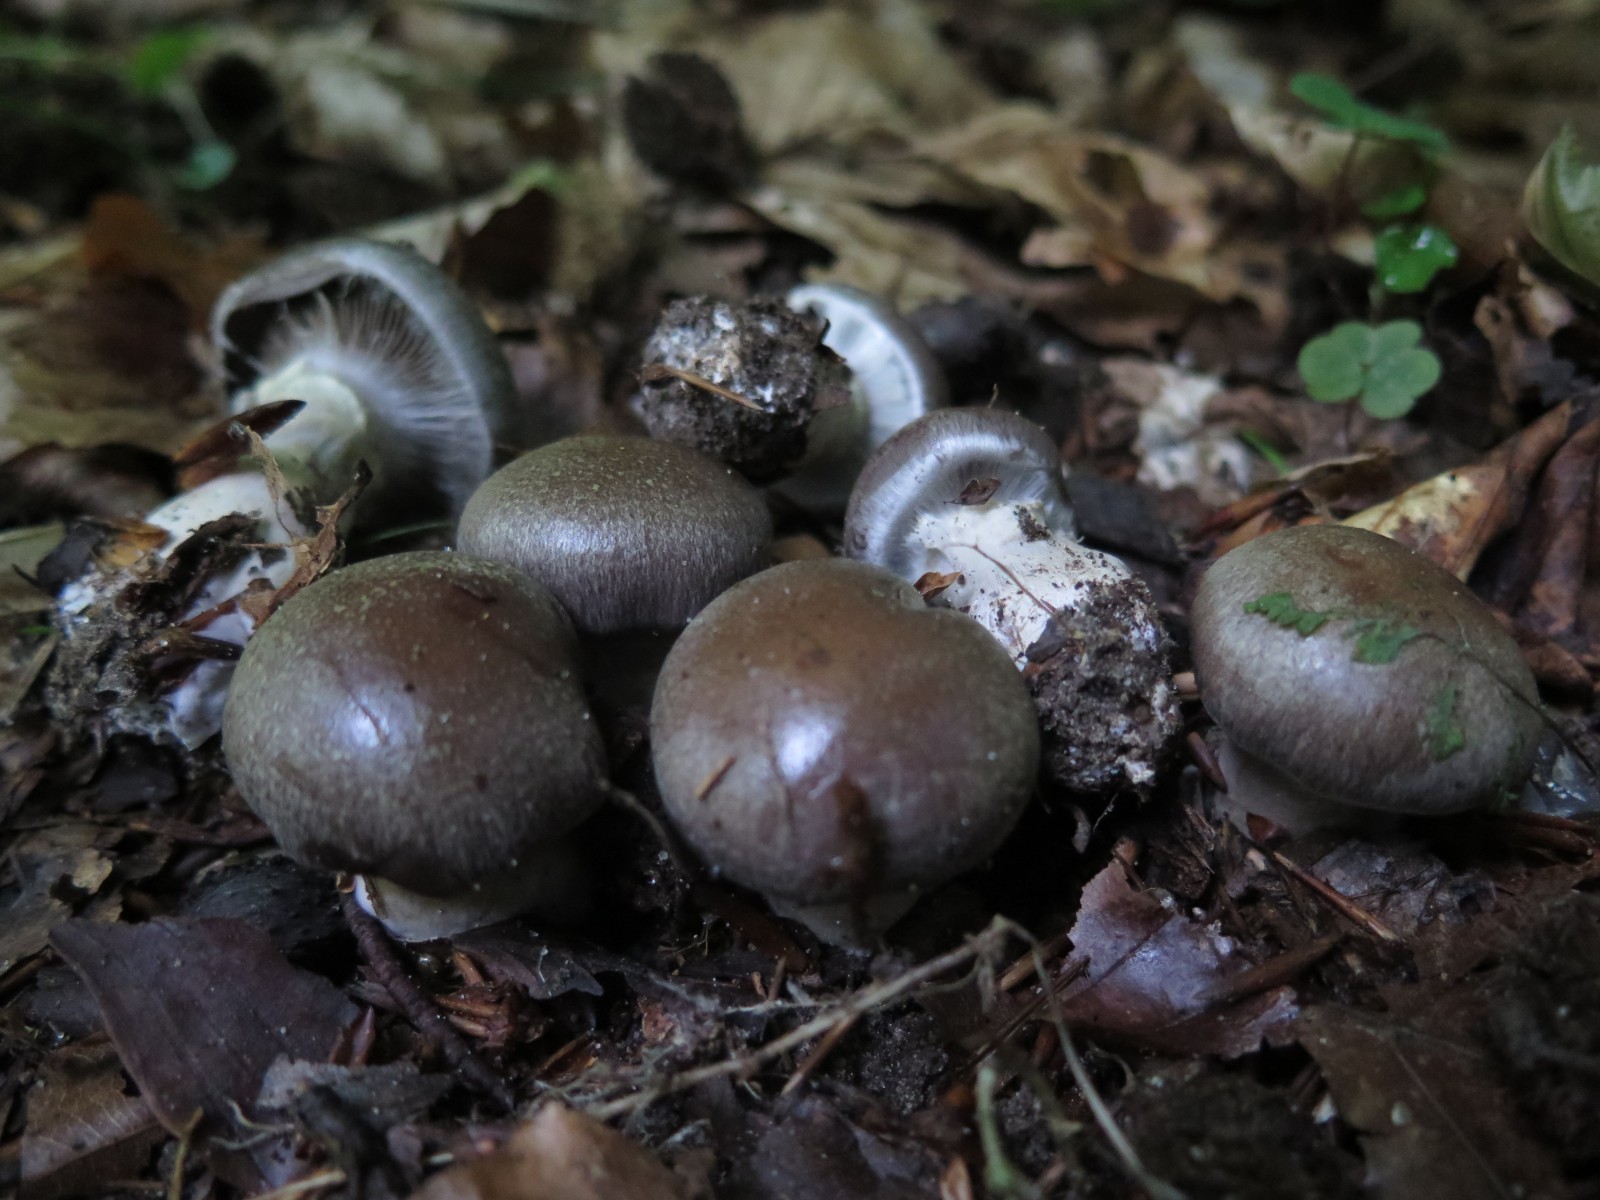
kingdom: Fungi
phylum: Basidiomycota
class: Agaricomycetes
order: Agaricales
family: Cortinariaceae
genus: Cortinarius
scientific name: Cortinarius
